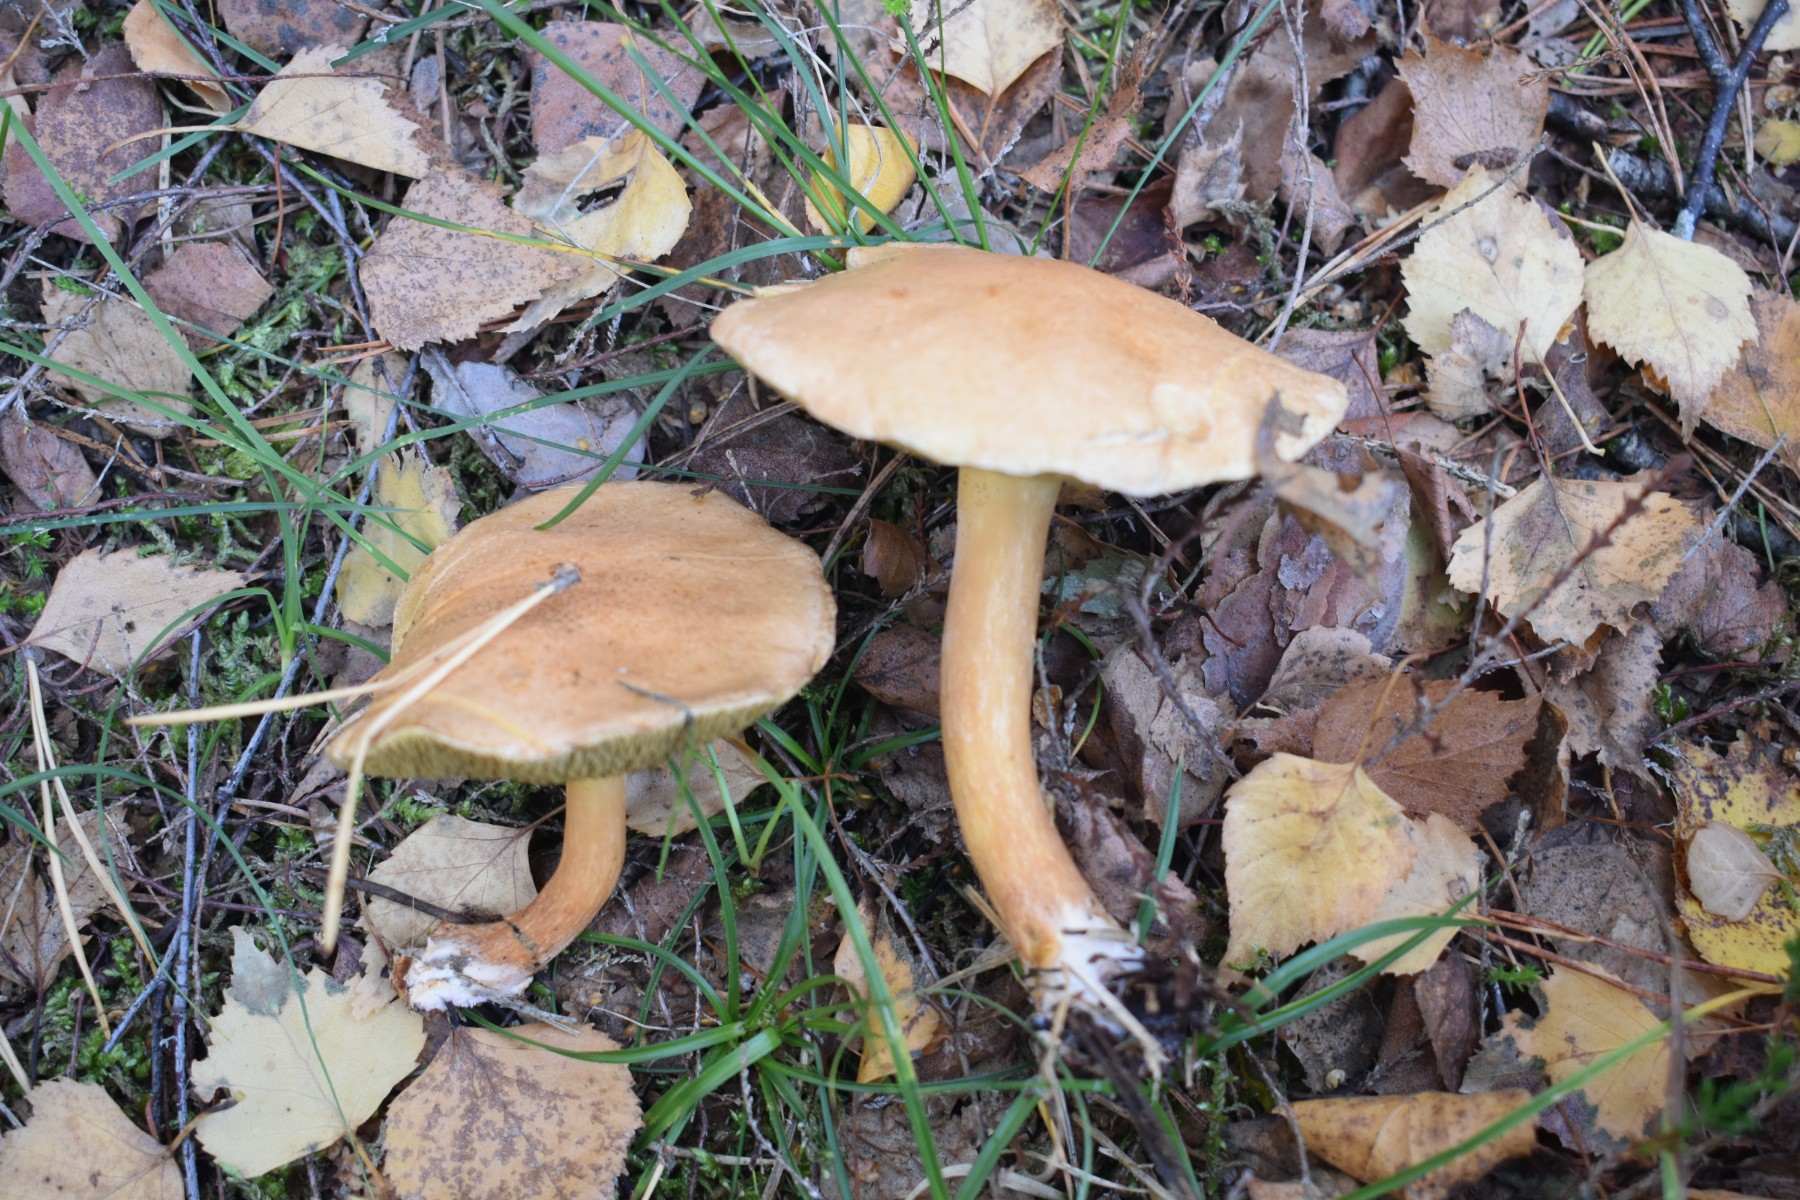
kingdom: Fungi
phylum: Basidiomycota
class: Agaricomycetes
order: Boletales
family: Suillaceae
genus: Suillus
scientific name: Suillus bovinus
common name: grovporet slimrørhat
